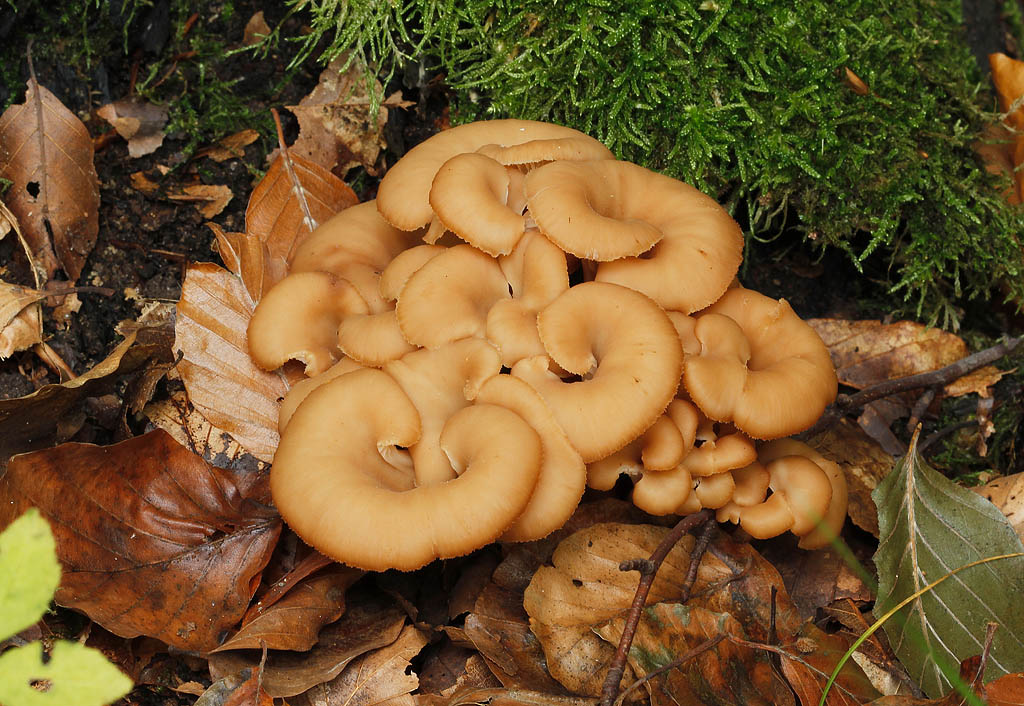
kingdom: Fungi
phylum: Basidiomycota
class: Agaricomycetes
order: Russulales
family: Auriscalpiaceae
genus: Lentinellus
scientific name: Lentinellus cochleatus
